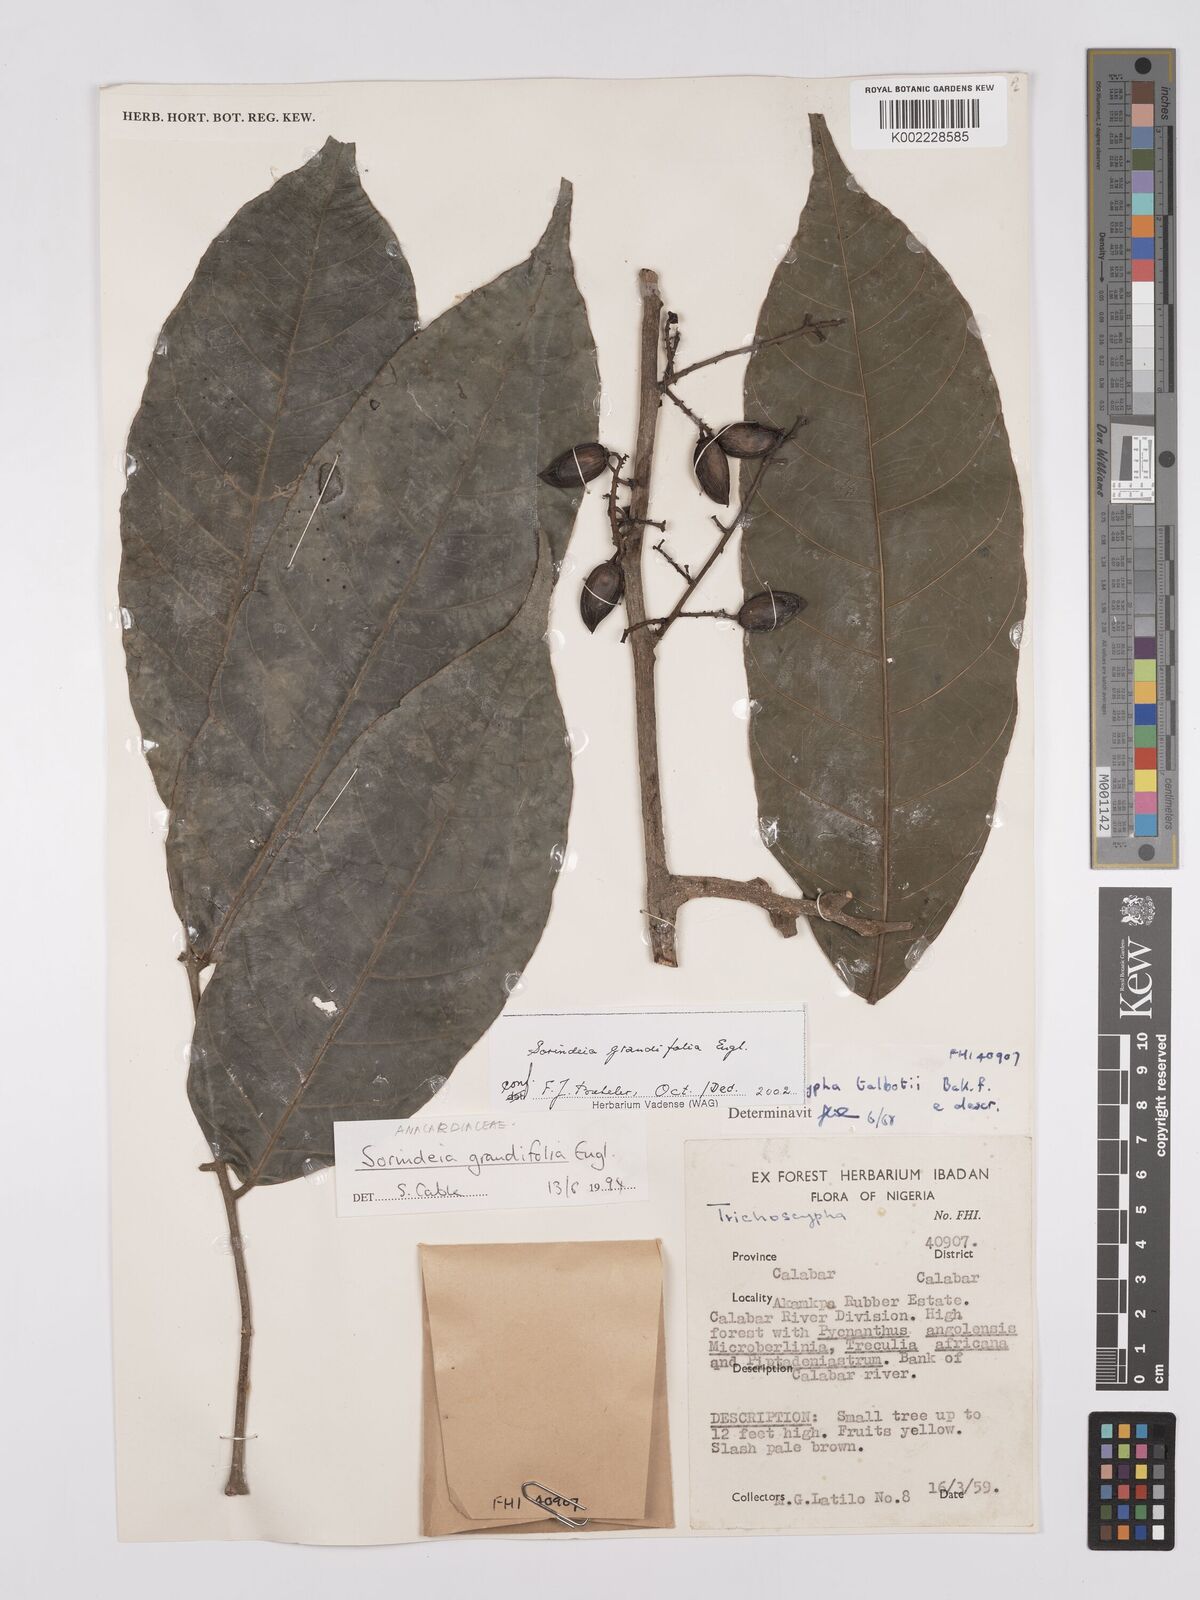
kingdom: Plantae
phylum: Tracheophyta
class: Magnoliopsida
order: Sapindales
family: Anacardiaceae
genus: Sorindeia
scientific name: Sorindeia grandifolia
